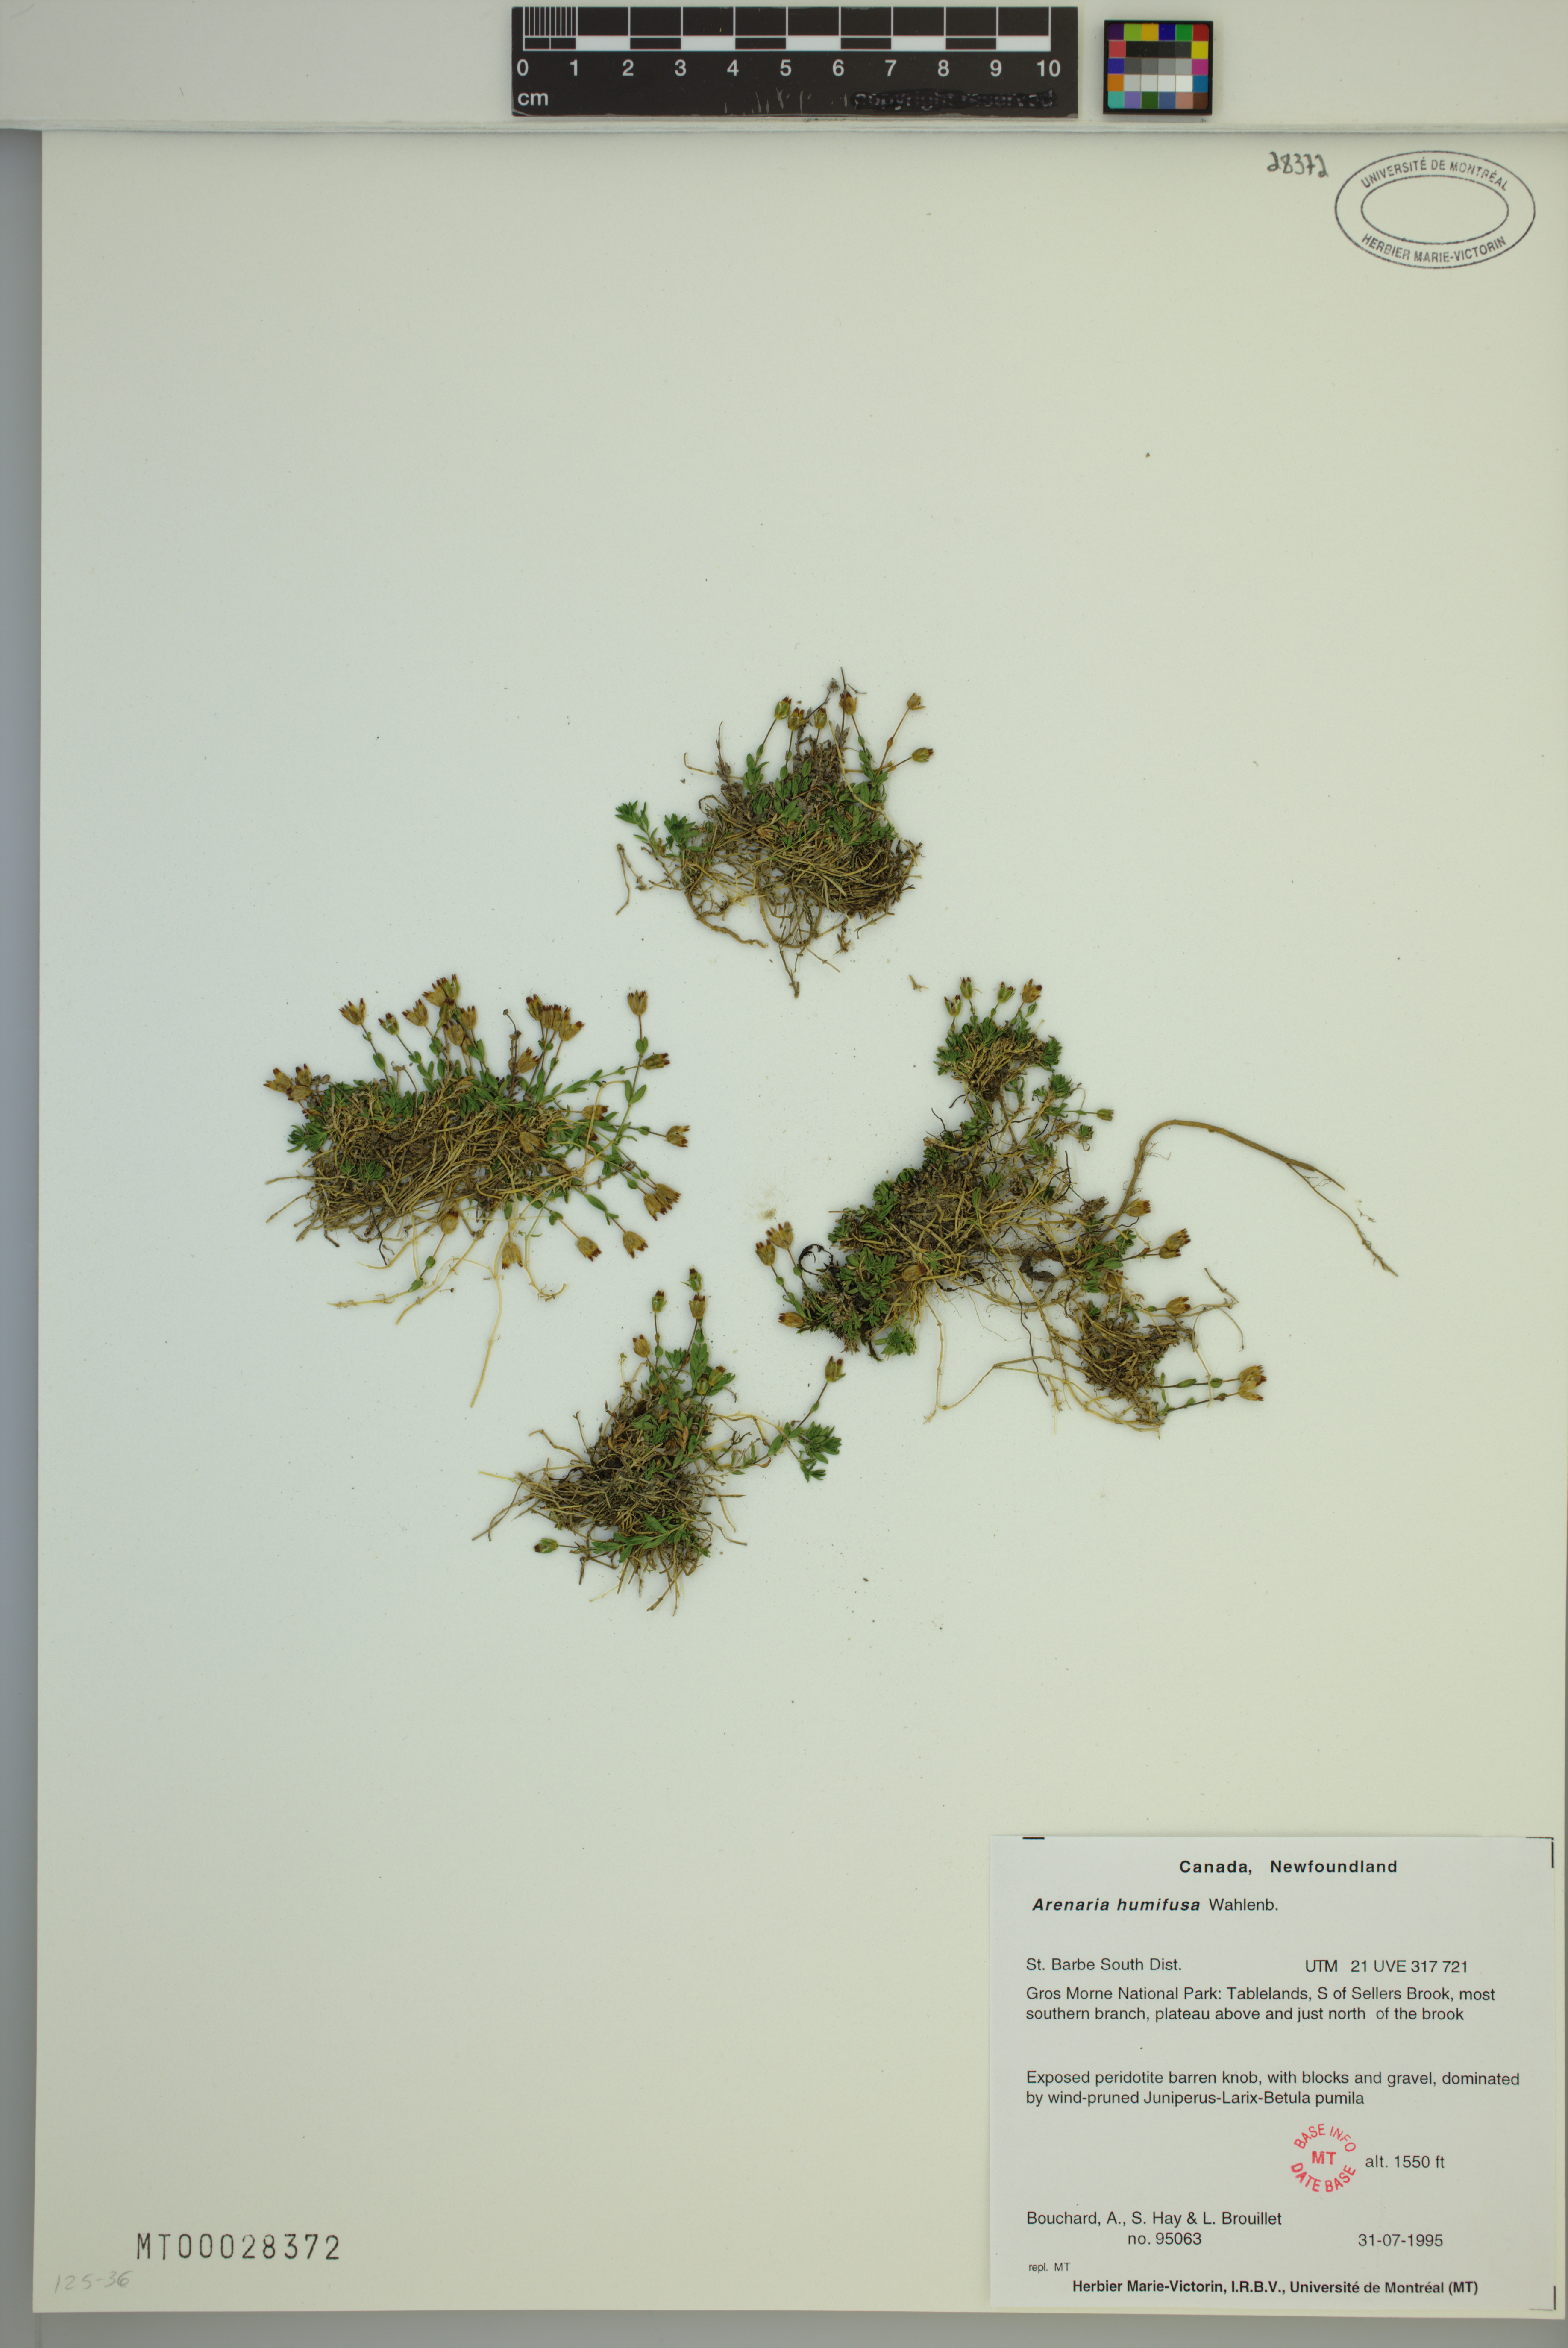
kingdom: Plantae
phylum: Tracheophyta
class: Magnoliopsida
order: Caryophyllales
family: Caryophyllaceae
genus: Arenaria
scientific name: Arenaria humifusa
